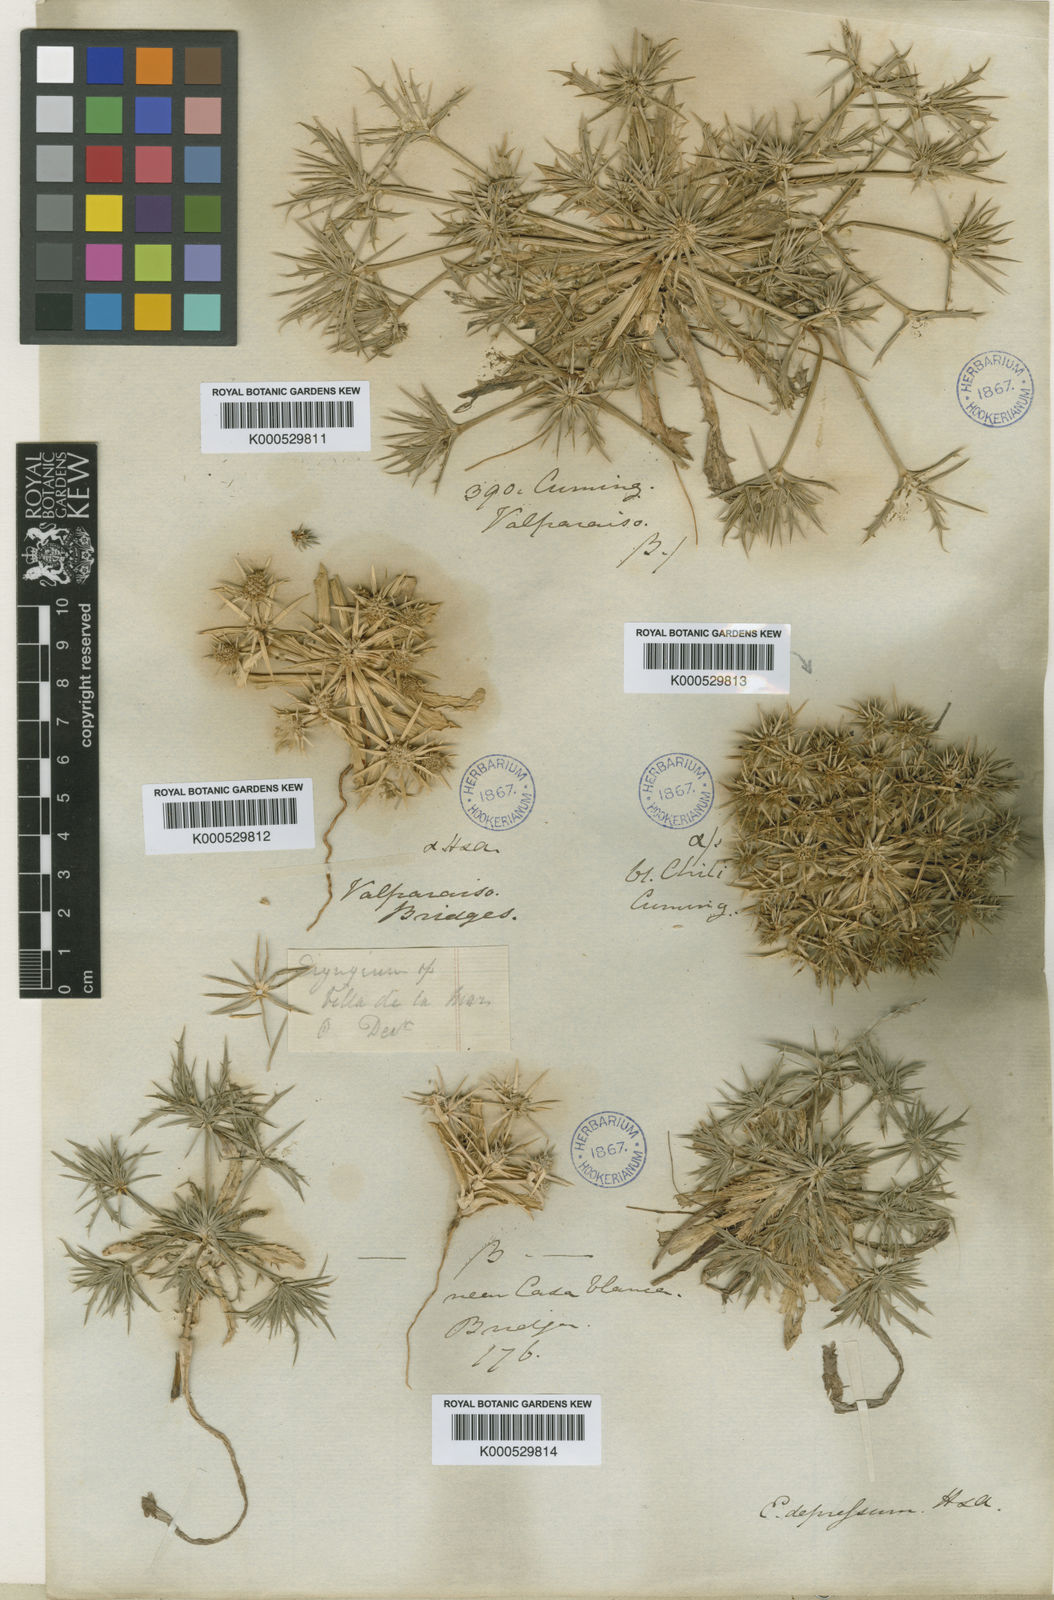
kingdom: Plantae
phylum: Tracheophyta
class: Magnoliopsida
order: Apiales
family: Apiaceae
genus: Eryngium
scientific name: Eryngium depressum
